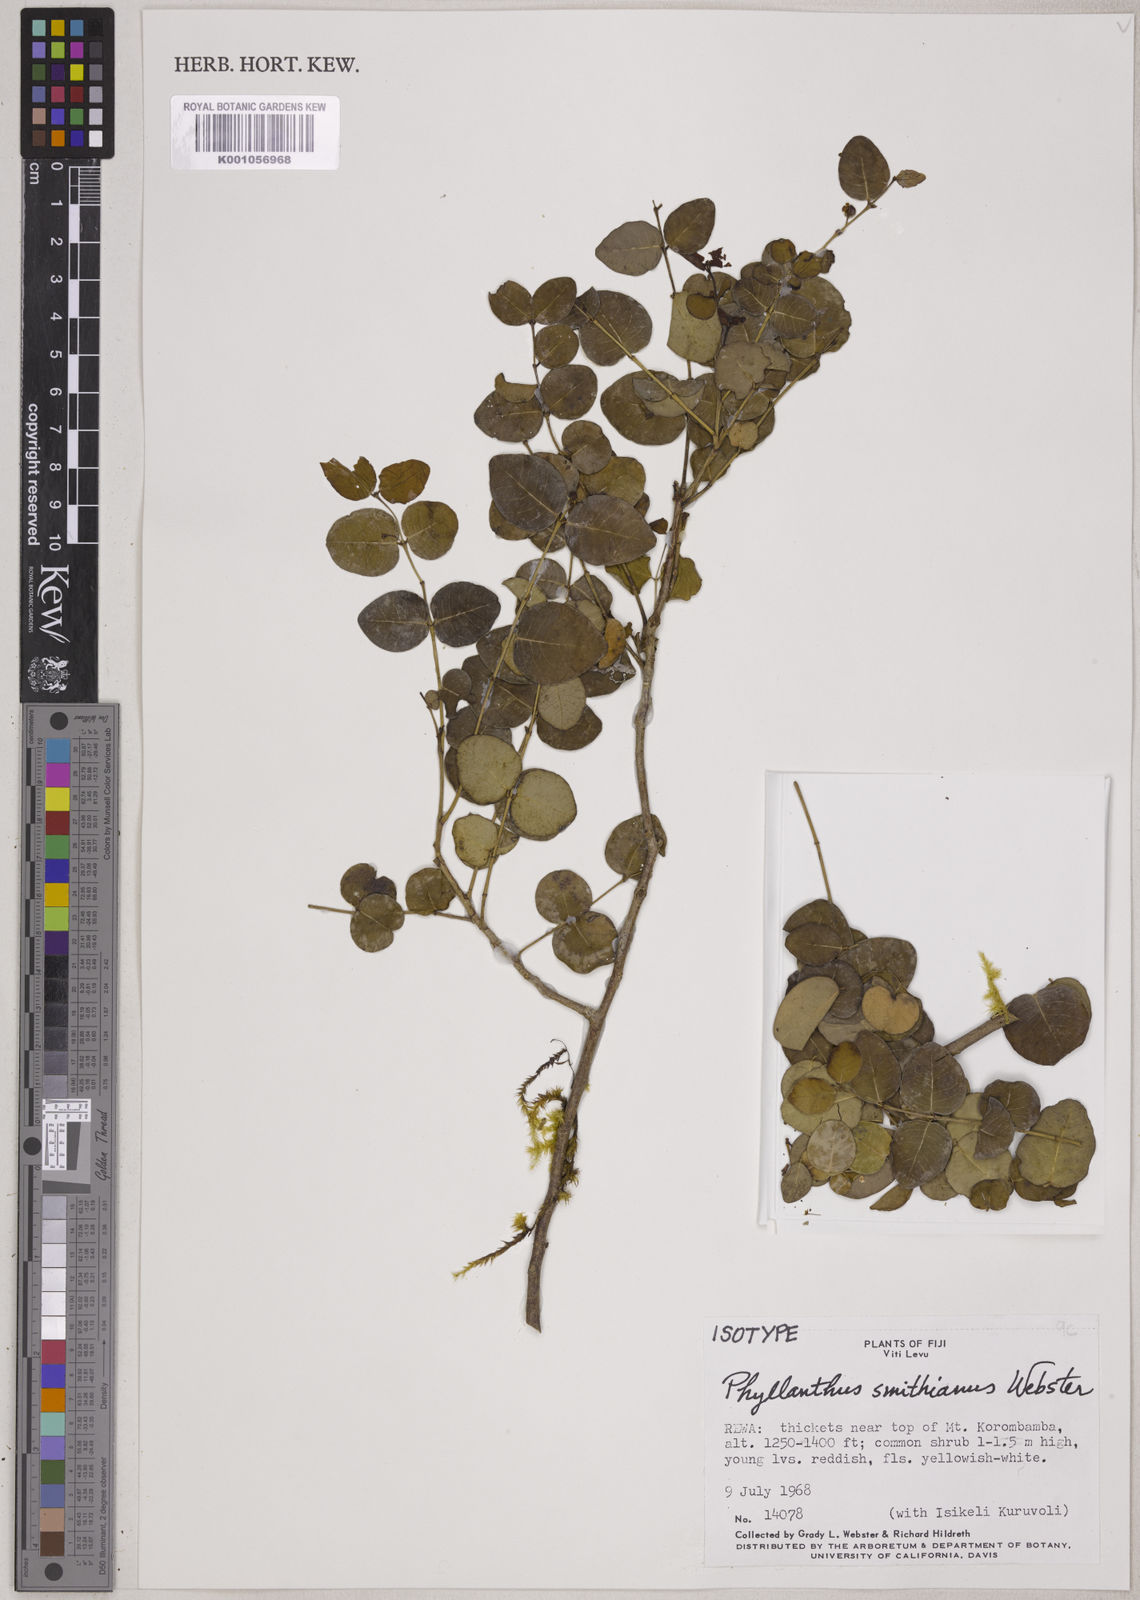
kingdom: Plantae
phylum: Tracheophyta
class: Magnoliopsida
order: Malpighiales
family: Phyllanthaceae
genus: Phyllanthus
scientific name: Phyllanthus smithianus
